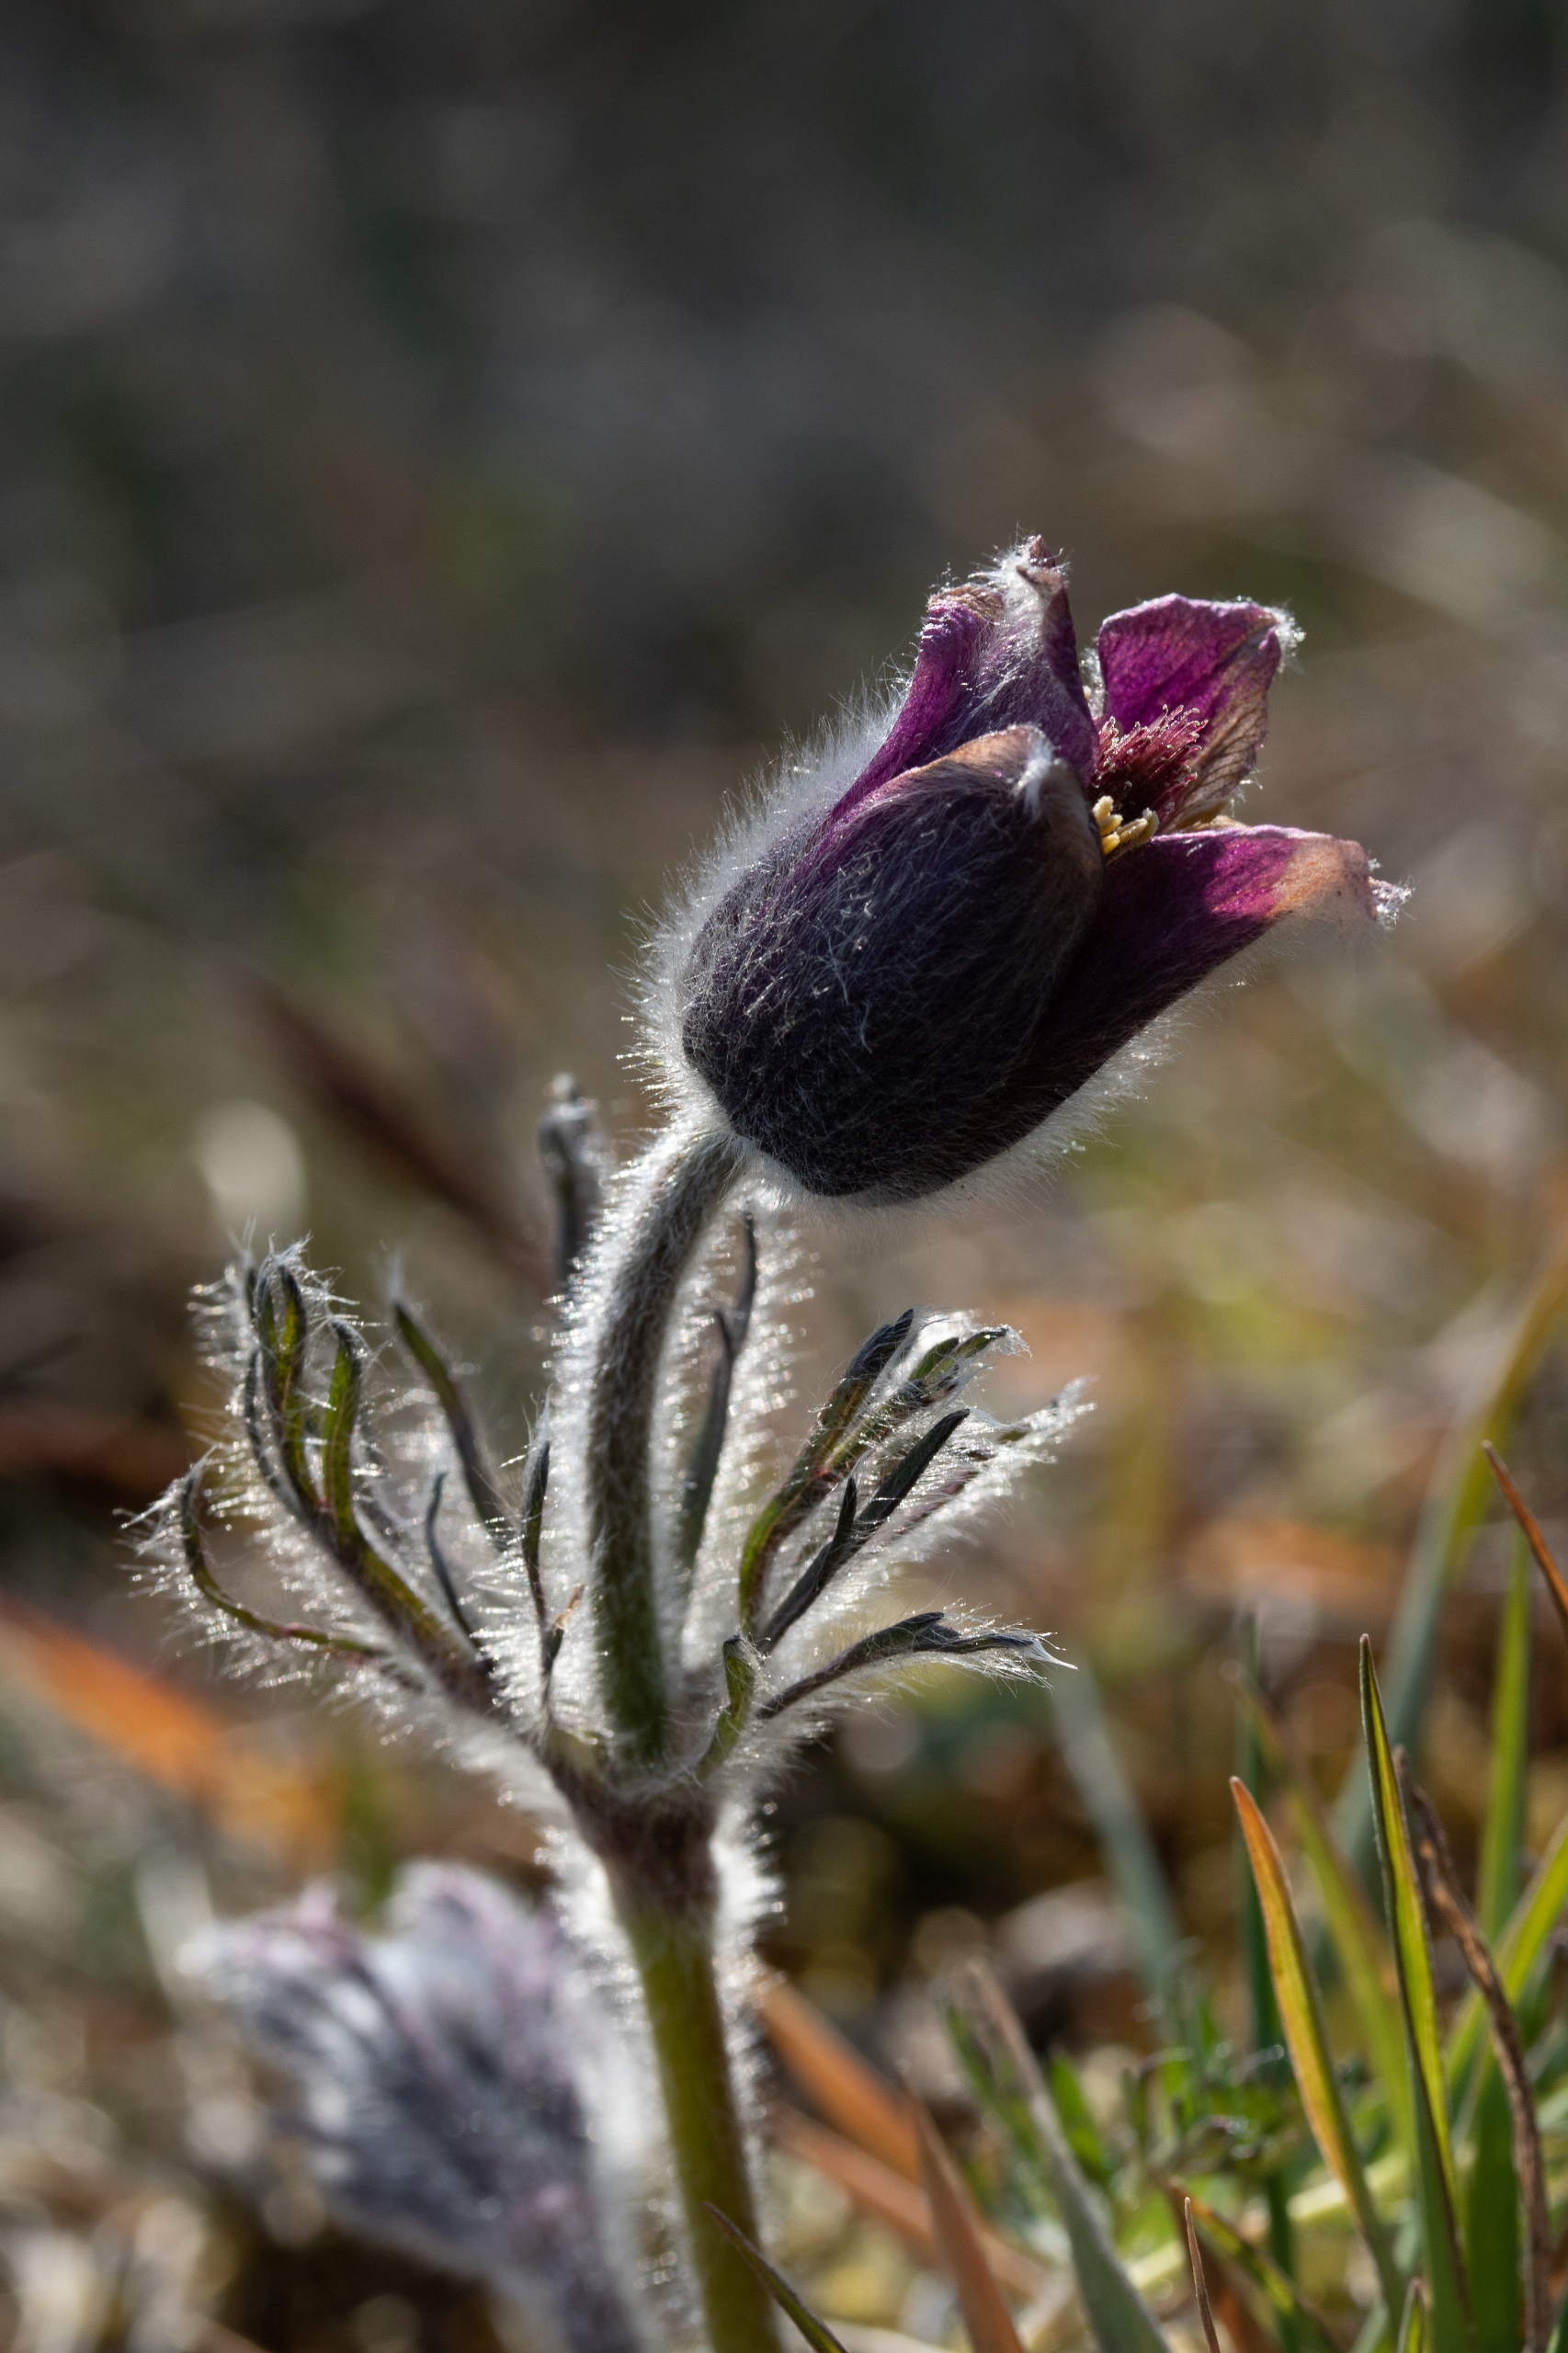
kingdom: Plantae
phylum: Tracheophyta
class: Magnoliopsida
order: Ranunculales
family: Ranunculaceae
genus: Pulsatilla
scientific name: Pulsatilla pratensis
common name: Nikkende kobjælde
